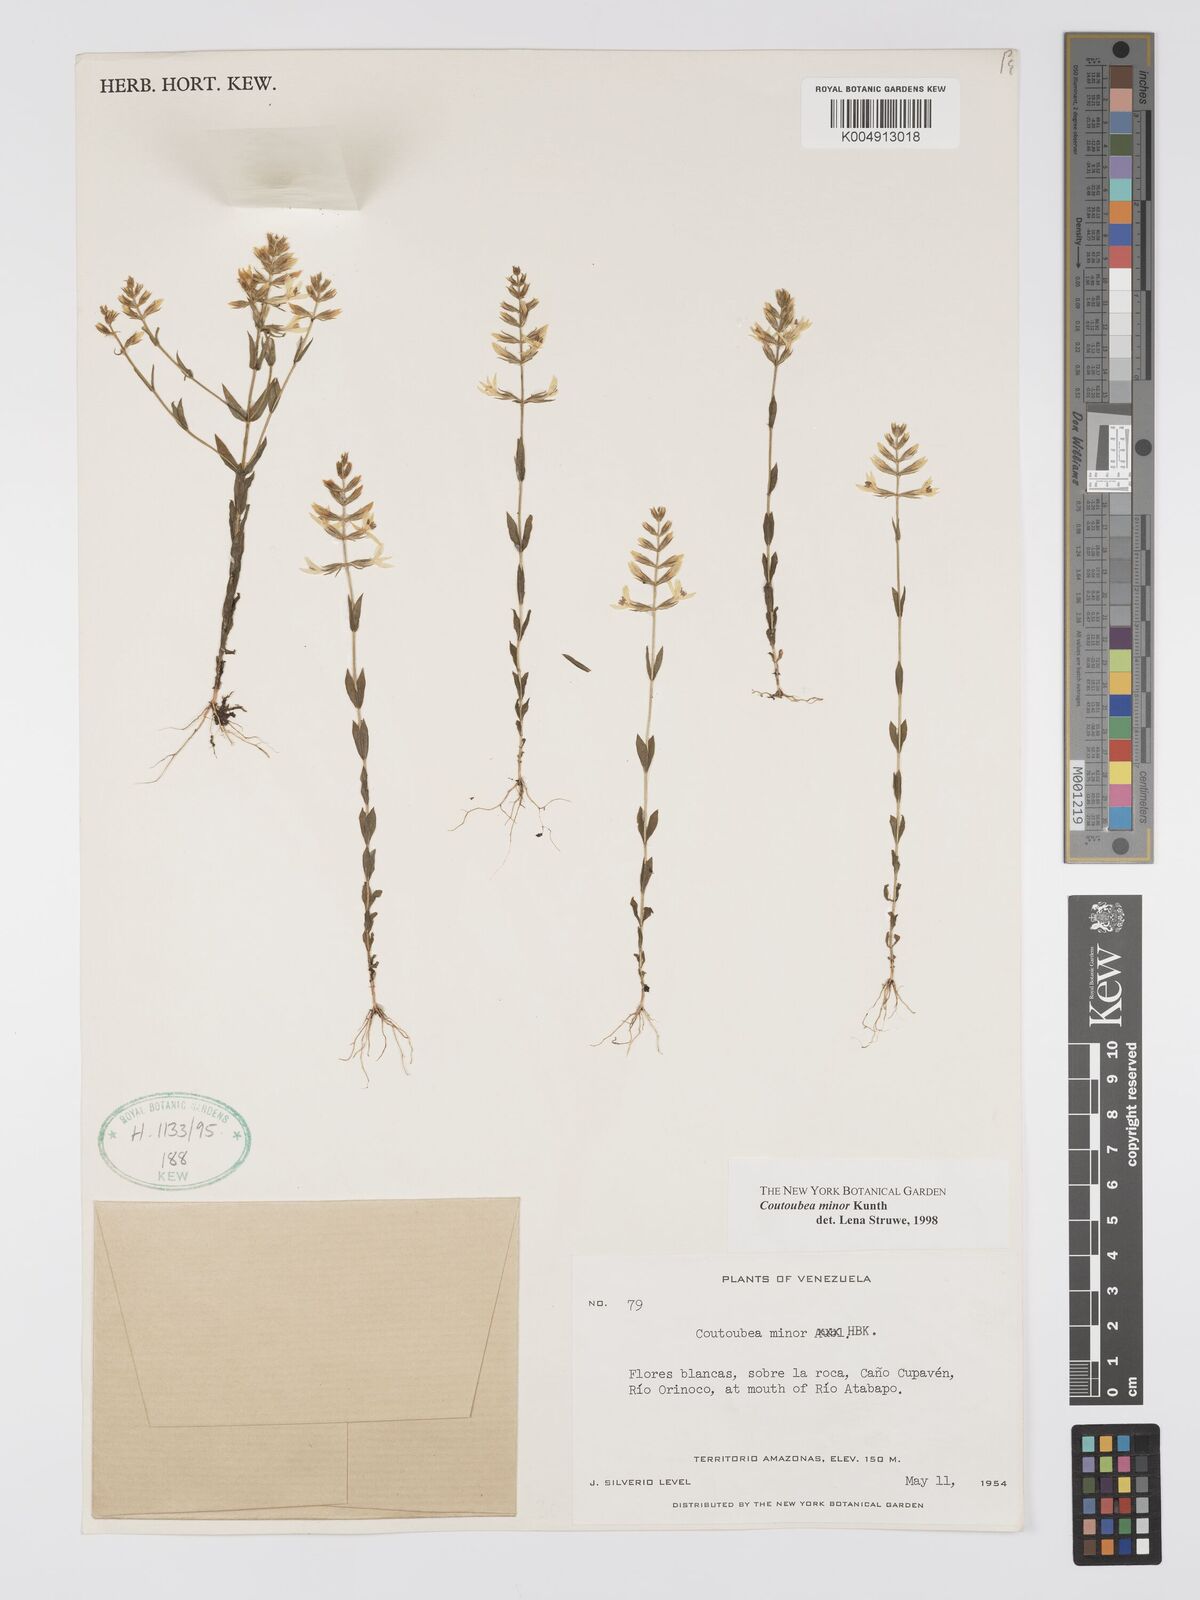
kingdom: Plantae
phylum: Tracheophyta
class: Magnoliopsida
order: Gentianales
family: Gentianaceae
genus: Coutoubea
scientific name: Coutoubea minor
